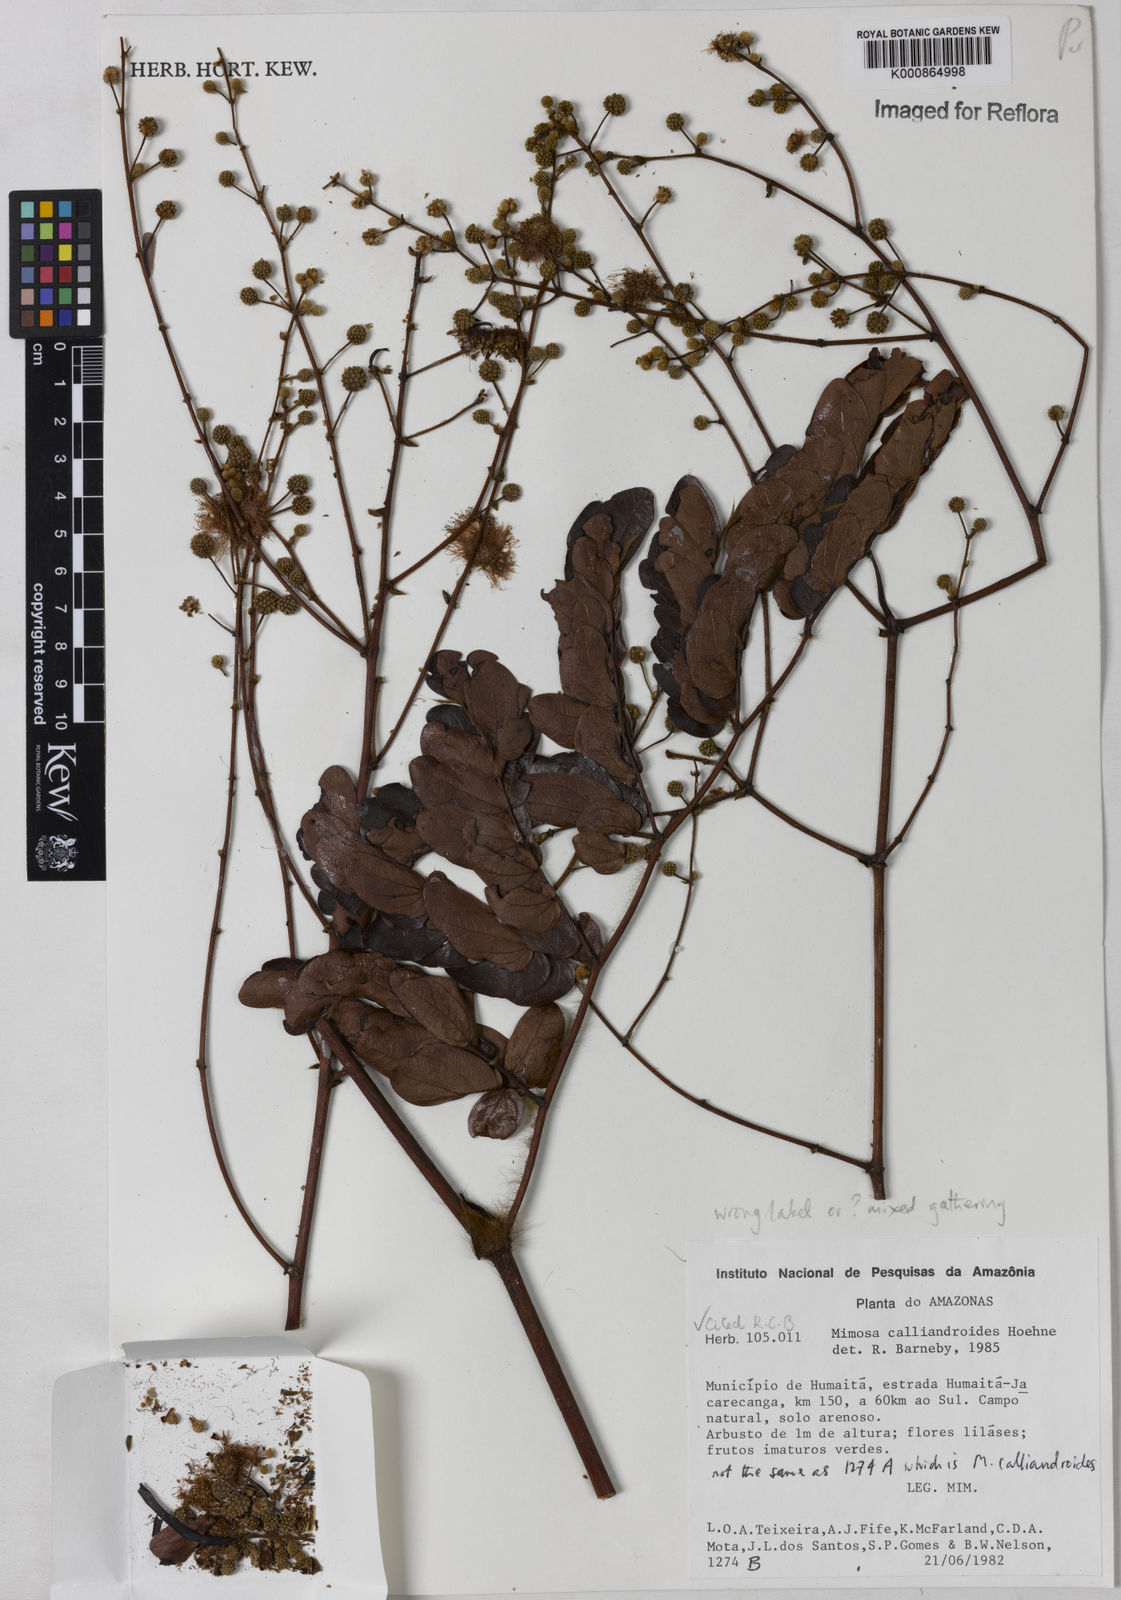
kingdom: Plantae
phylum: Tracheophyta
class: Magnoliopsida
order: Fabales
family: Fabaceae
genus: Mimosa
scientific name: Mimosa macropogon
